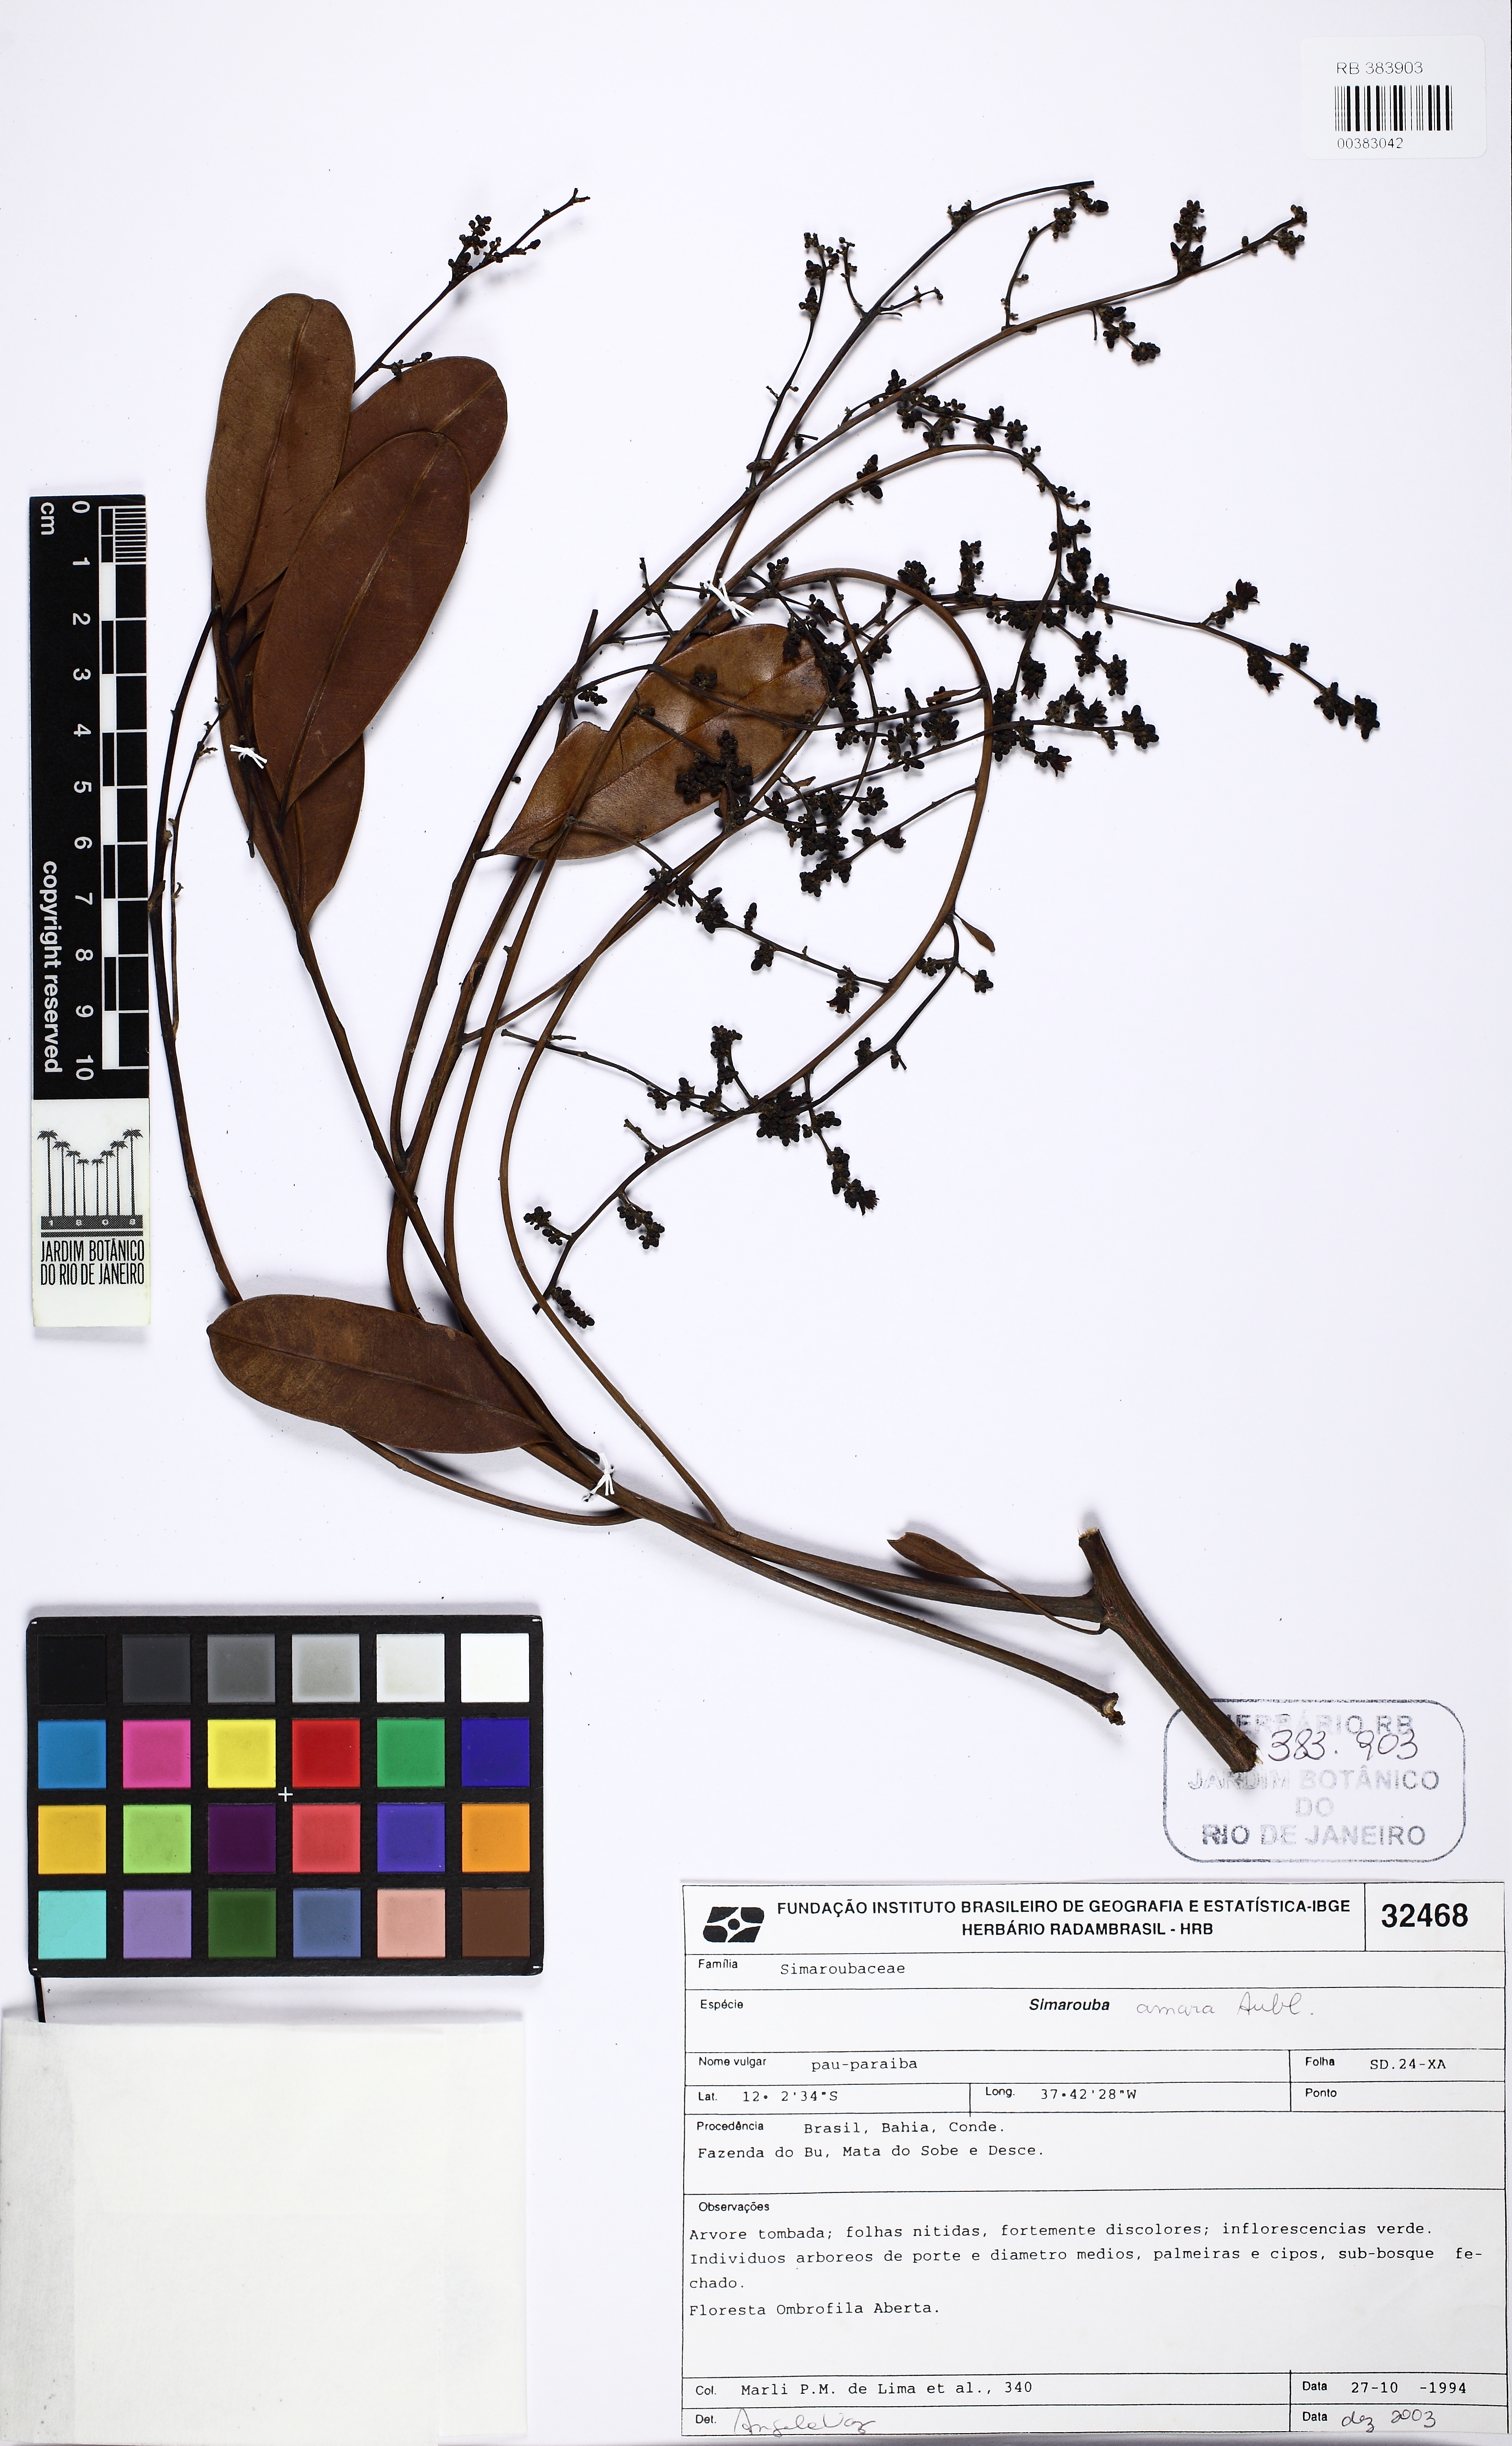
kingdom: Plantae
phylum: Tracheophyta
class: Magnoliopsida
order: Sapindales
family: Simaroubaceae
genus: Simarouba
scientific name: Simarouba amara
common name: Bitterwood
